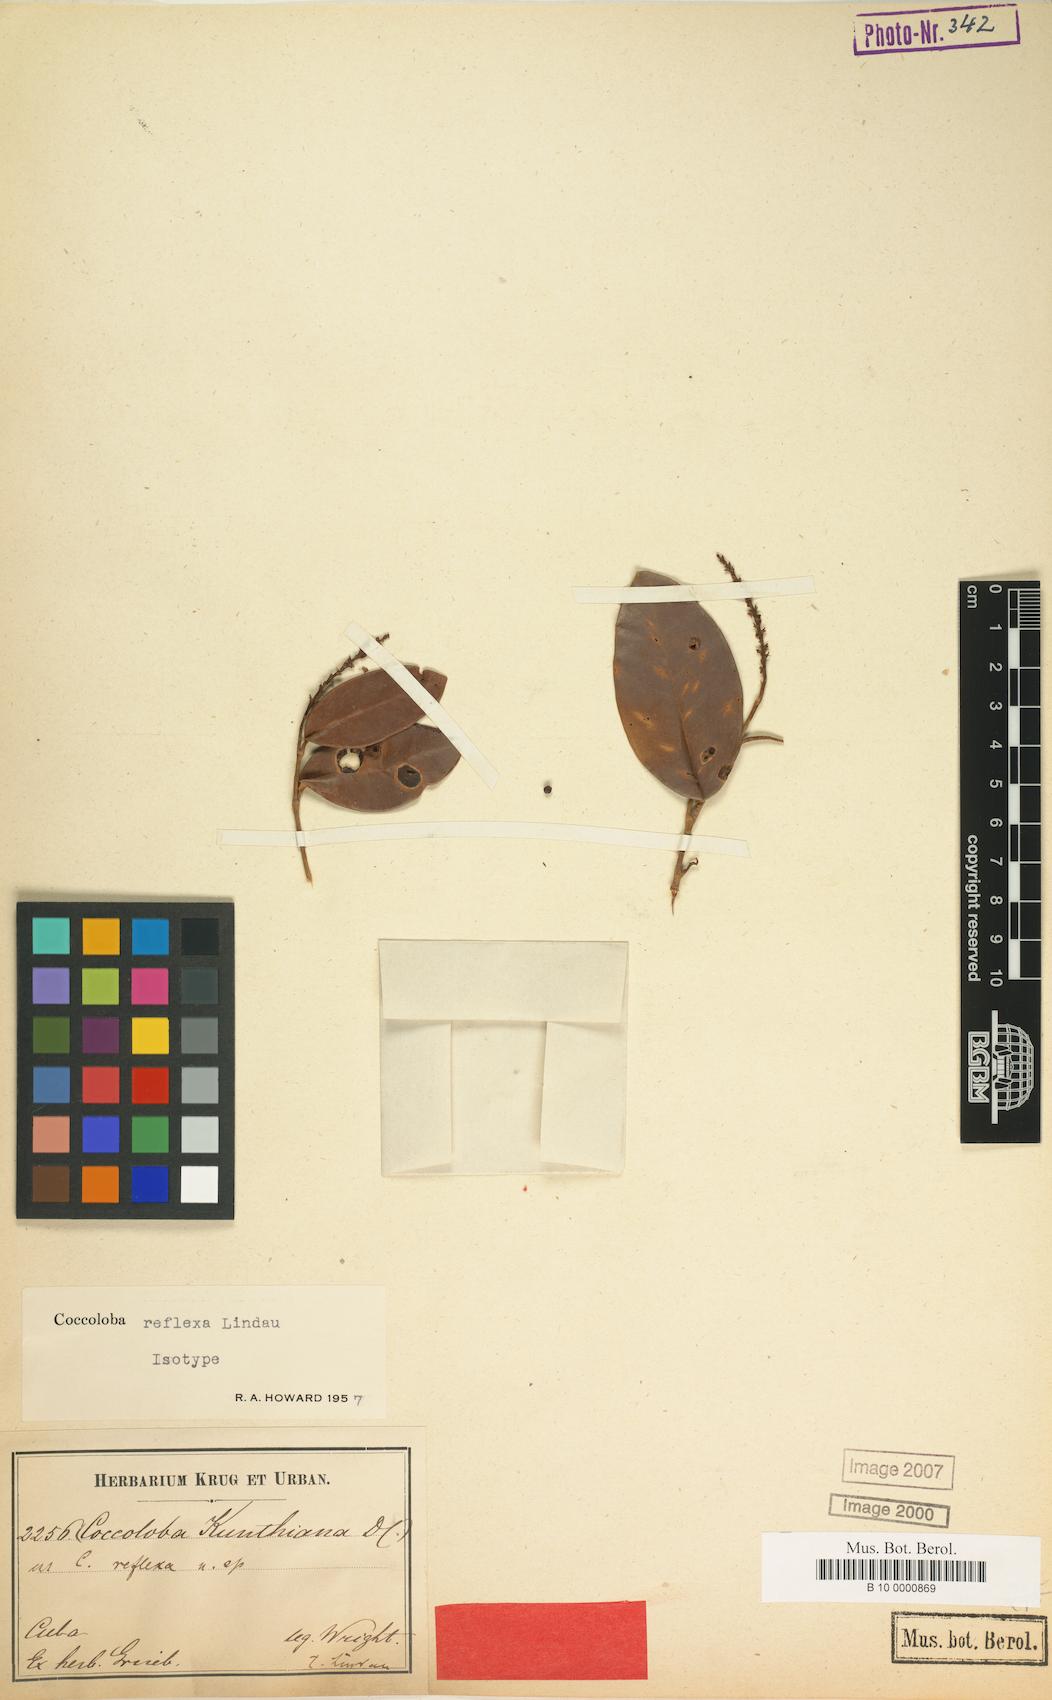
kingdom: Plantae
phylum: Tracheophyta
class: Magnoliopsida
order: Caryophyllales
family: Polygonaceae
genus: Coccoloba
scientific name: Coccoloba reflexa
